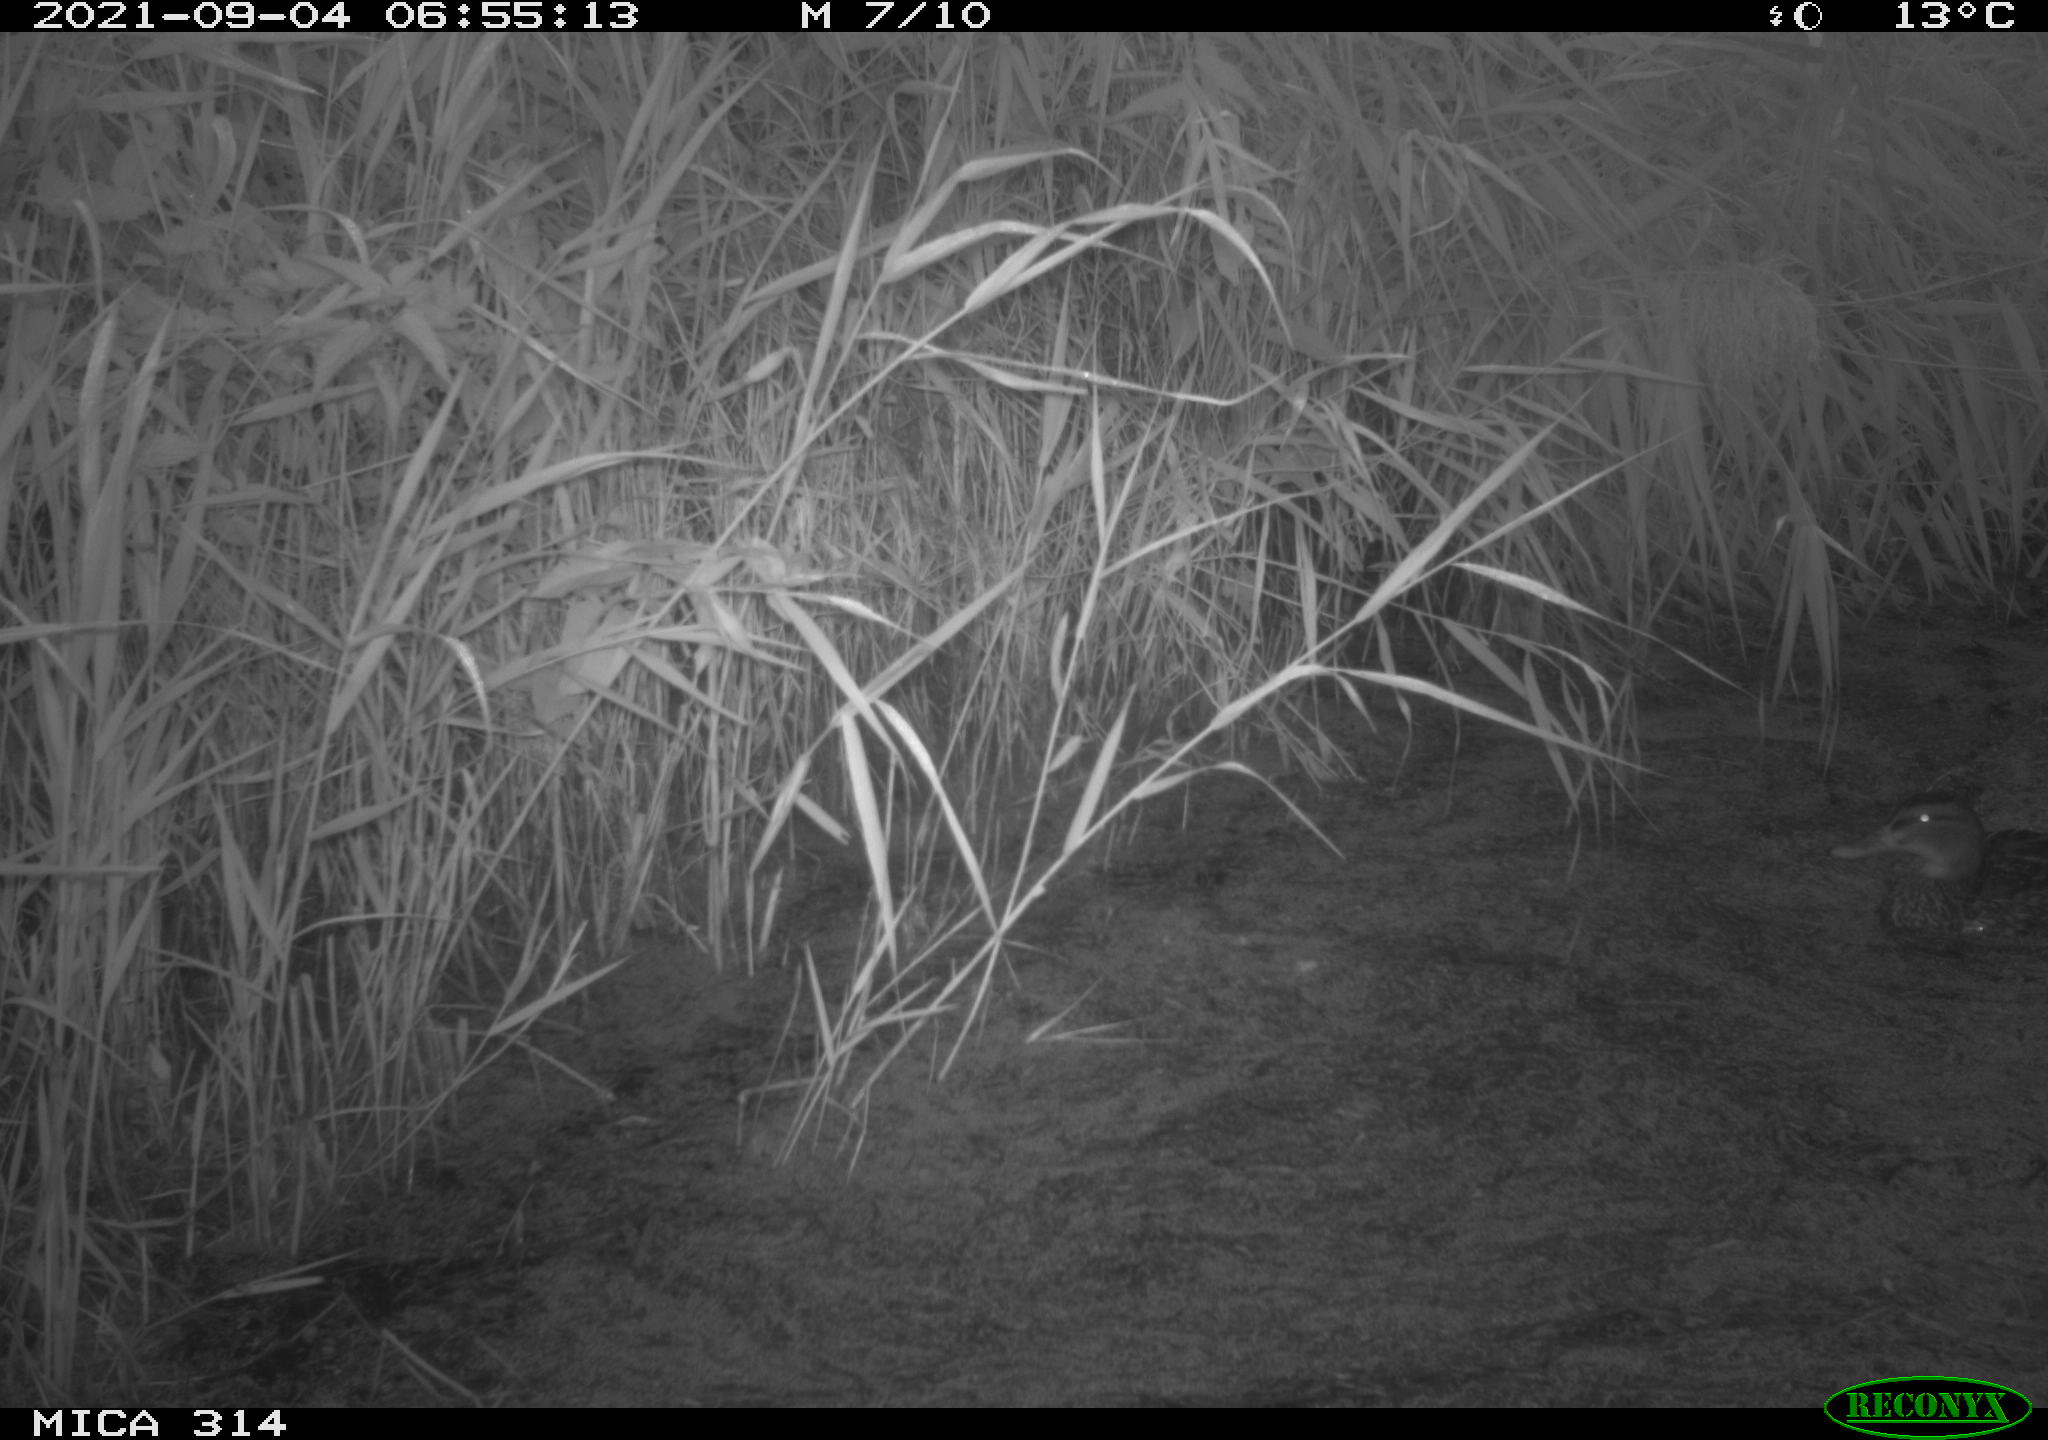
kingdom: Animalia
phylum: Chordata
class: Aves
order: Anseriformes
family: Anatidae
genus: Anas
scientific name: Anas platyrhynchos
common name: Mallard
